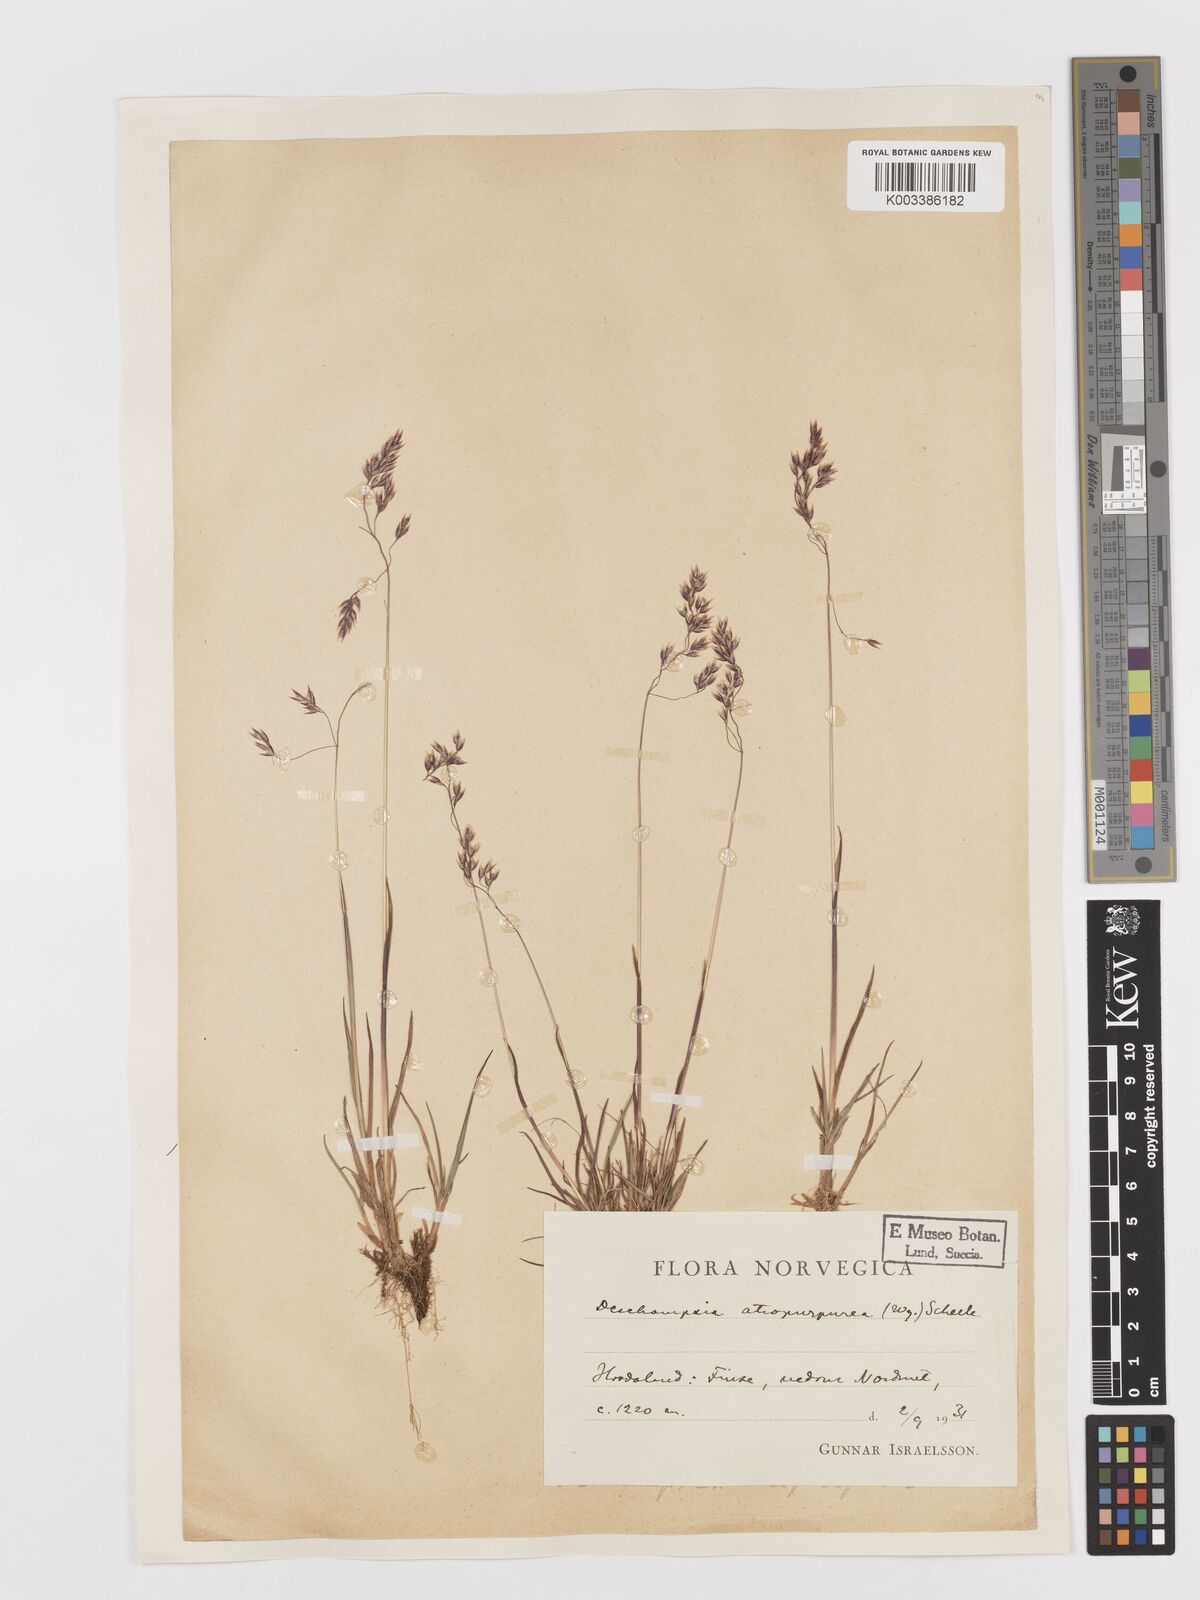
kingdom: Plantae
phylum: Tracheophyta
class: Liliopsida
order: Poales
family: Poaceae
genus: Vahlodea
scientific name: Vahlodea atropurpurea
